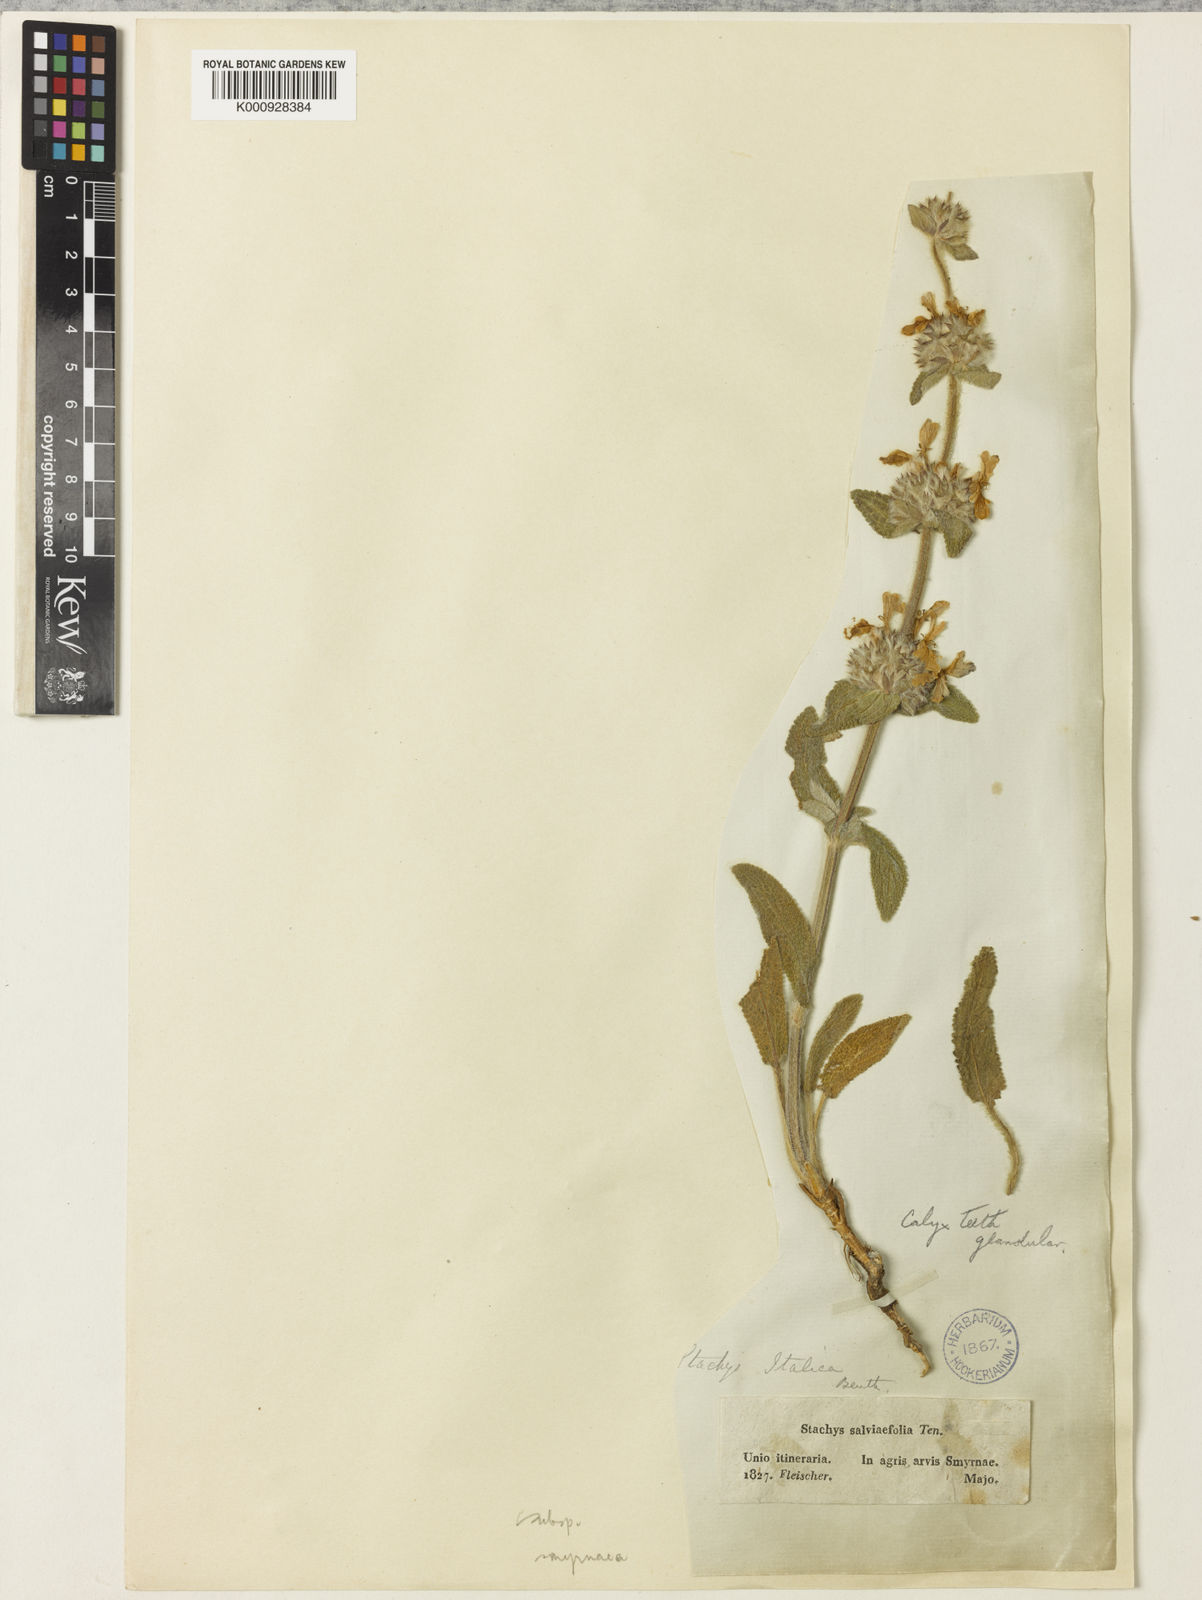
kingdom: Plantae
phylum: Tracheophyta
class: Magnoliopsida
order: Lamiales
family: Lamiaceae
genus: Stachys
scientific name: Stachys cretica
